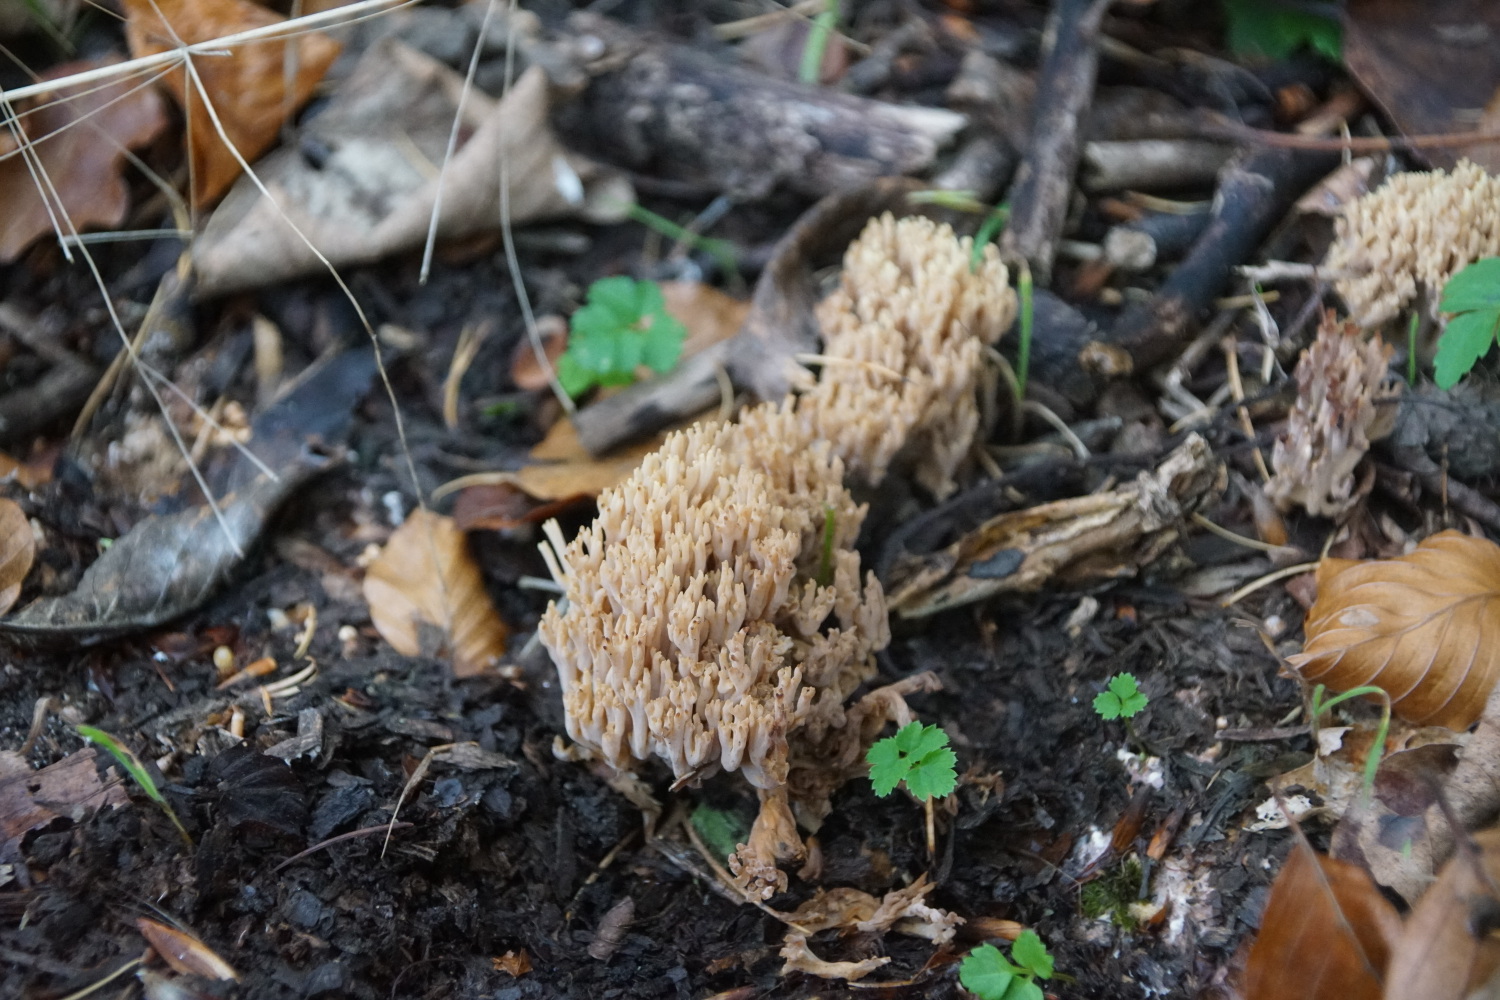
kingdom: Fungi
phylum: Basidiomycota
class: Agaricomycetes
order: Gomphales
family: Gomphaceae
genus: Ramaria
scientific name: Ramaria stricta
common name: rank koralsvamp
